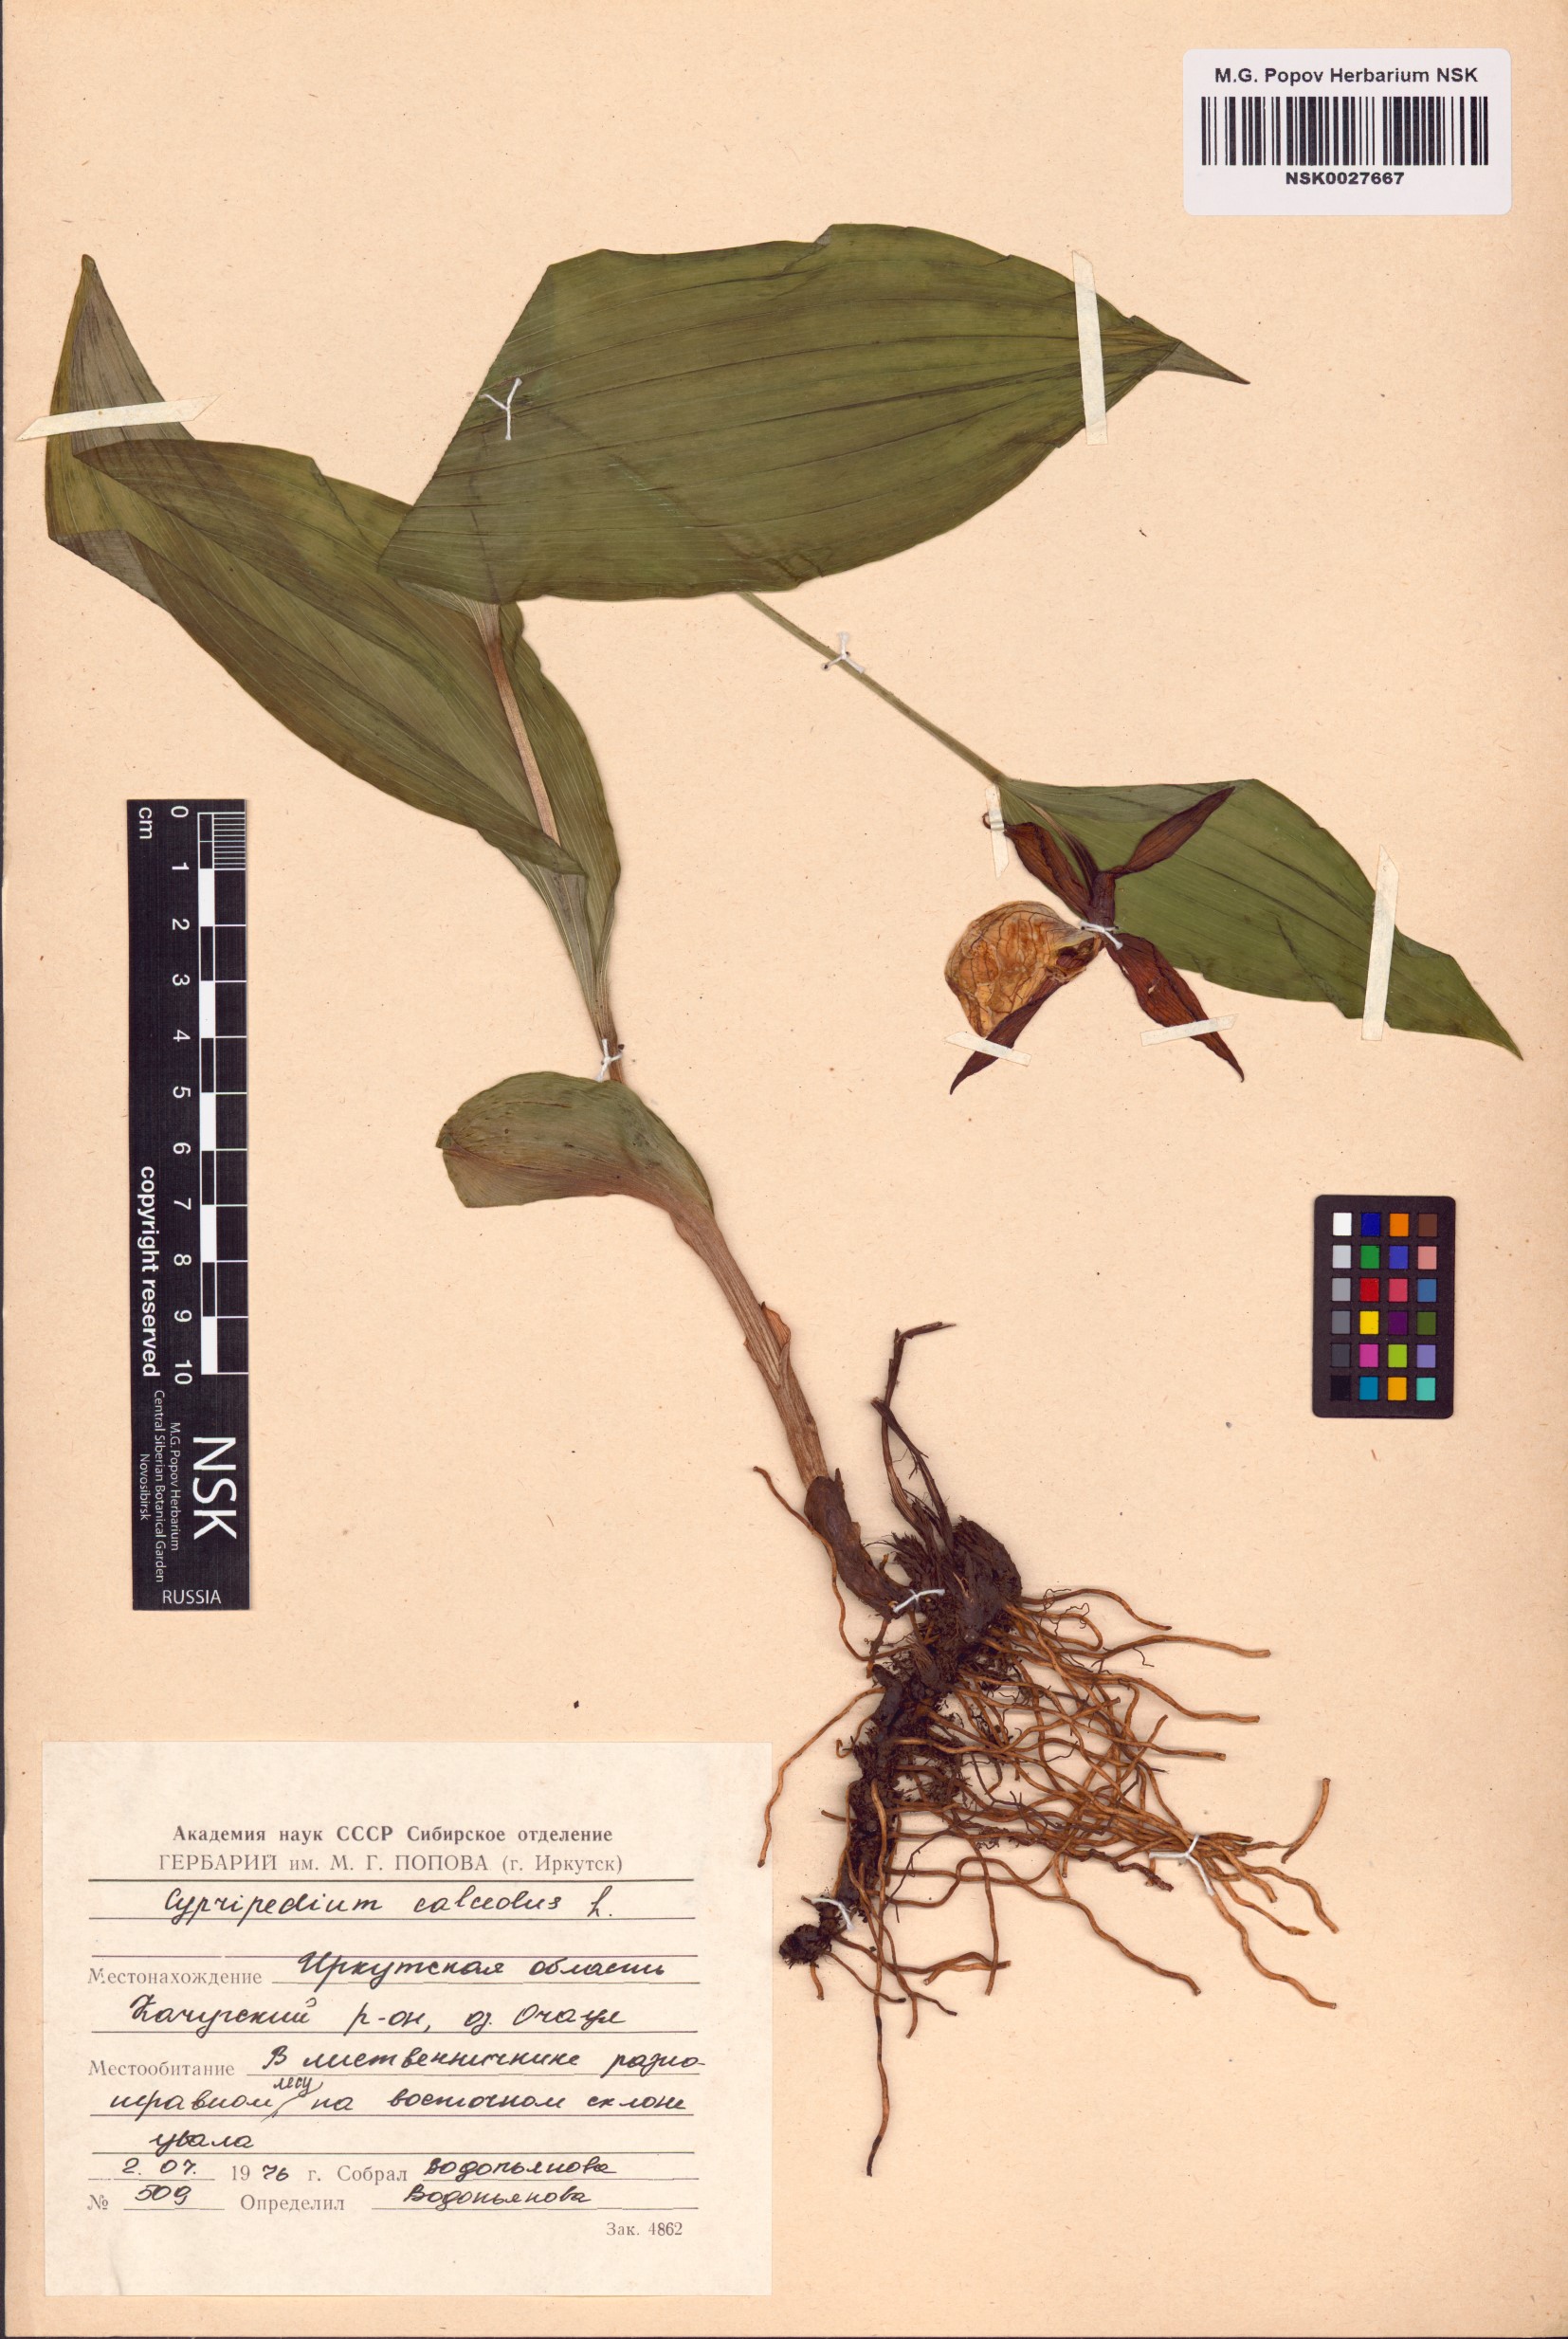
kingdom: Plantae
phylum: Tracheophyta
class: Liliopsida
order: Asparagales
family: Orchidaceae
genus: Cypripedium
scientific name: Cypripedium calceolus
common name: Lady's-slipper
